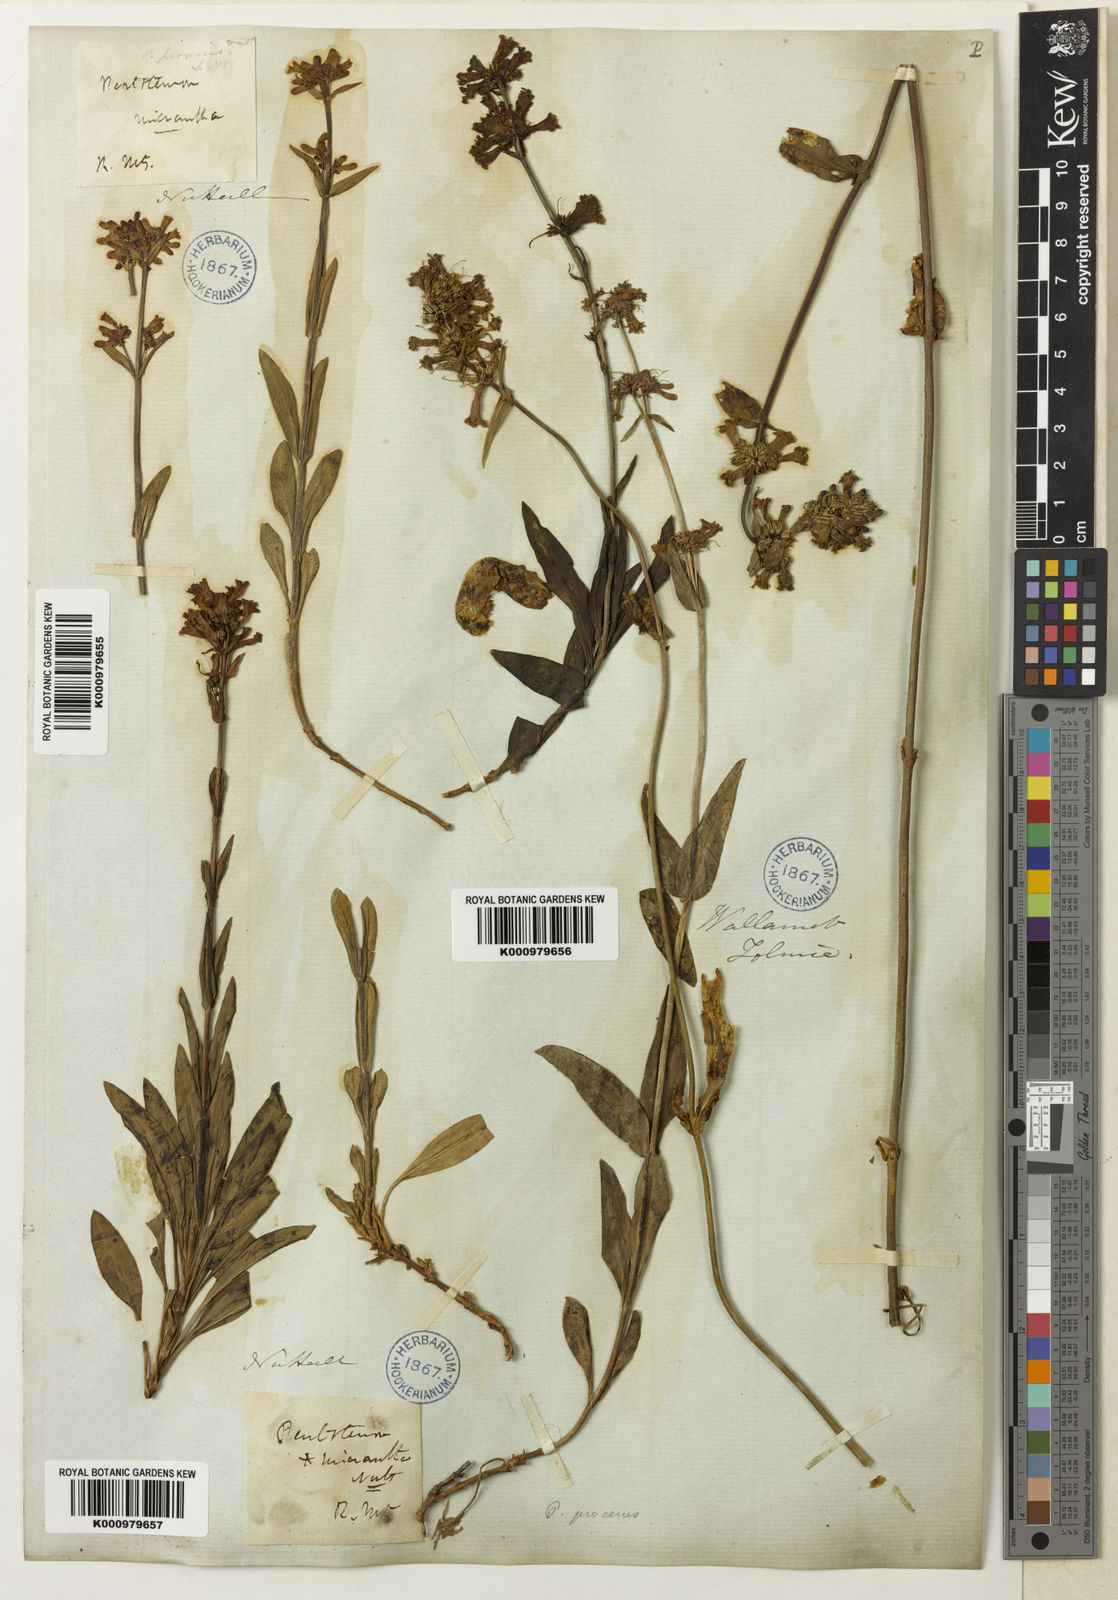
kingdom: Plantae
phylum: Tracheophyta
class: Magnoliopsida
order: Lamiales
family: Plantaginaceae
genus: Penstemon
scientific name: Penstemon procerus
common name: Small-flower penstemon
